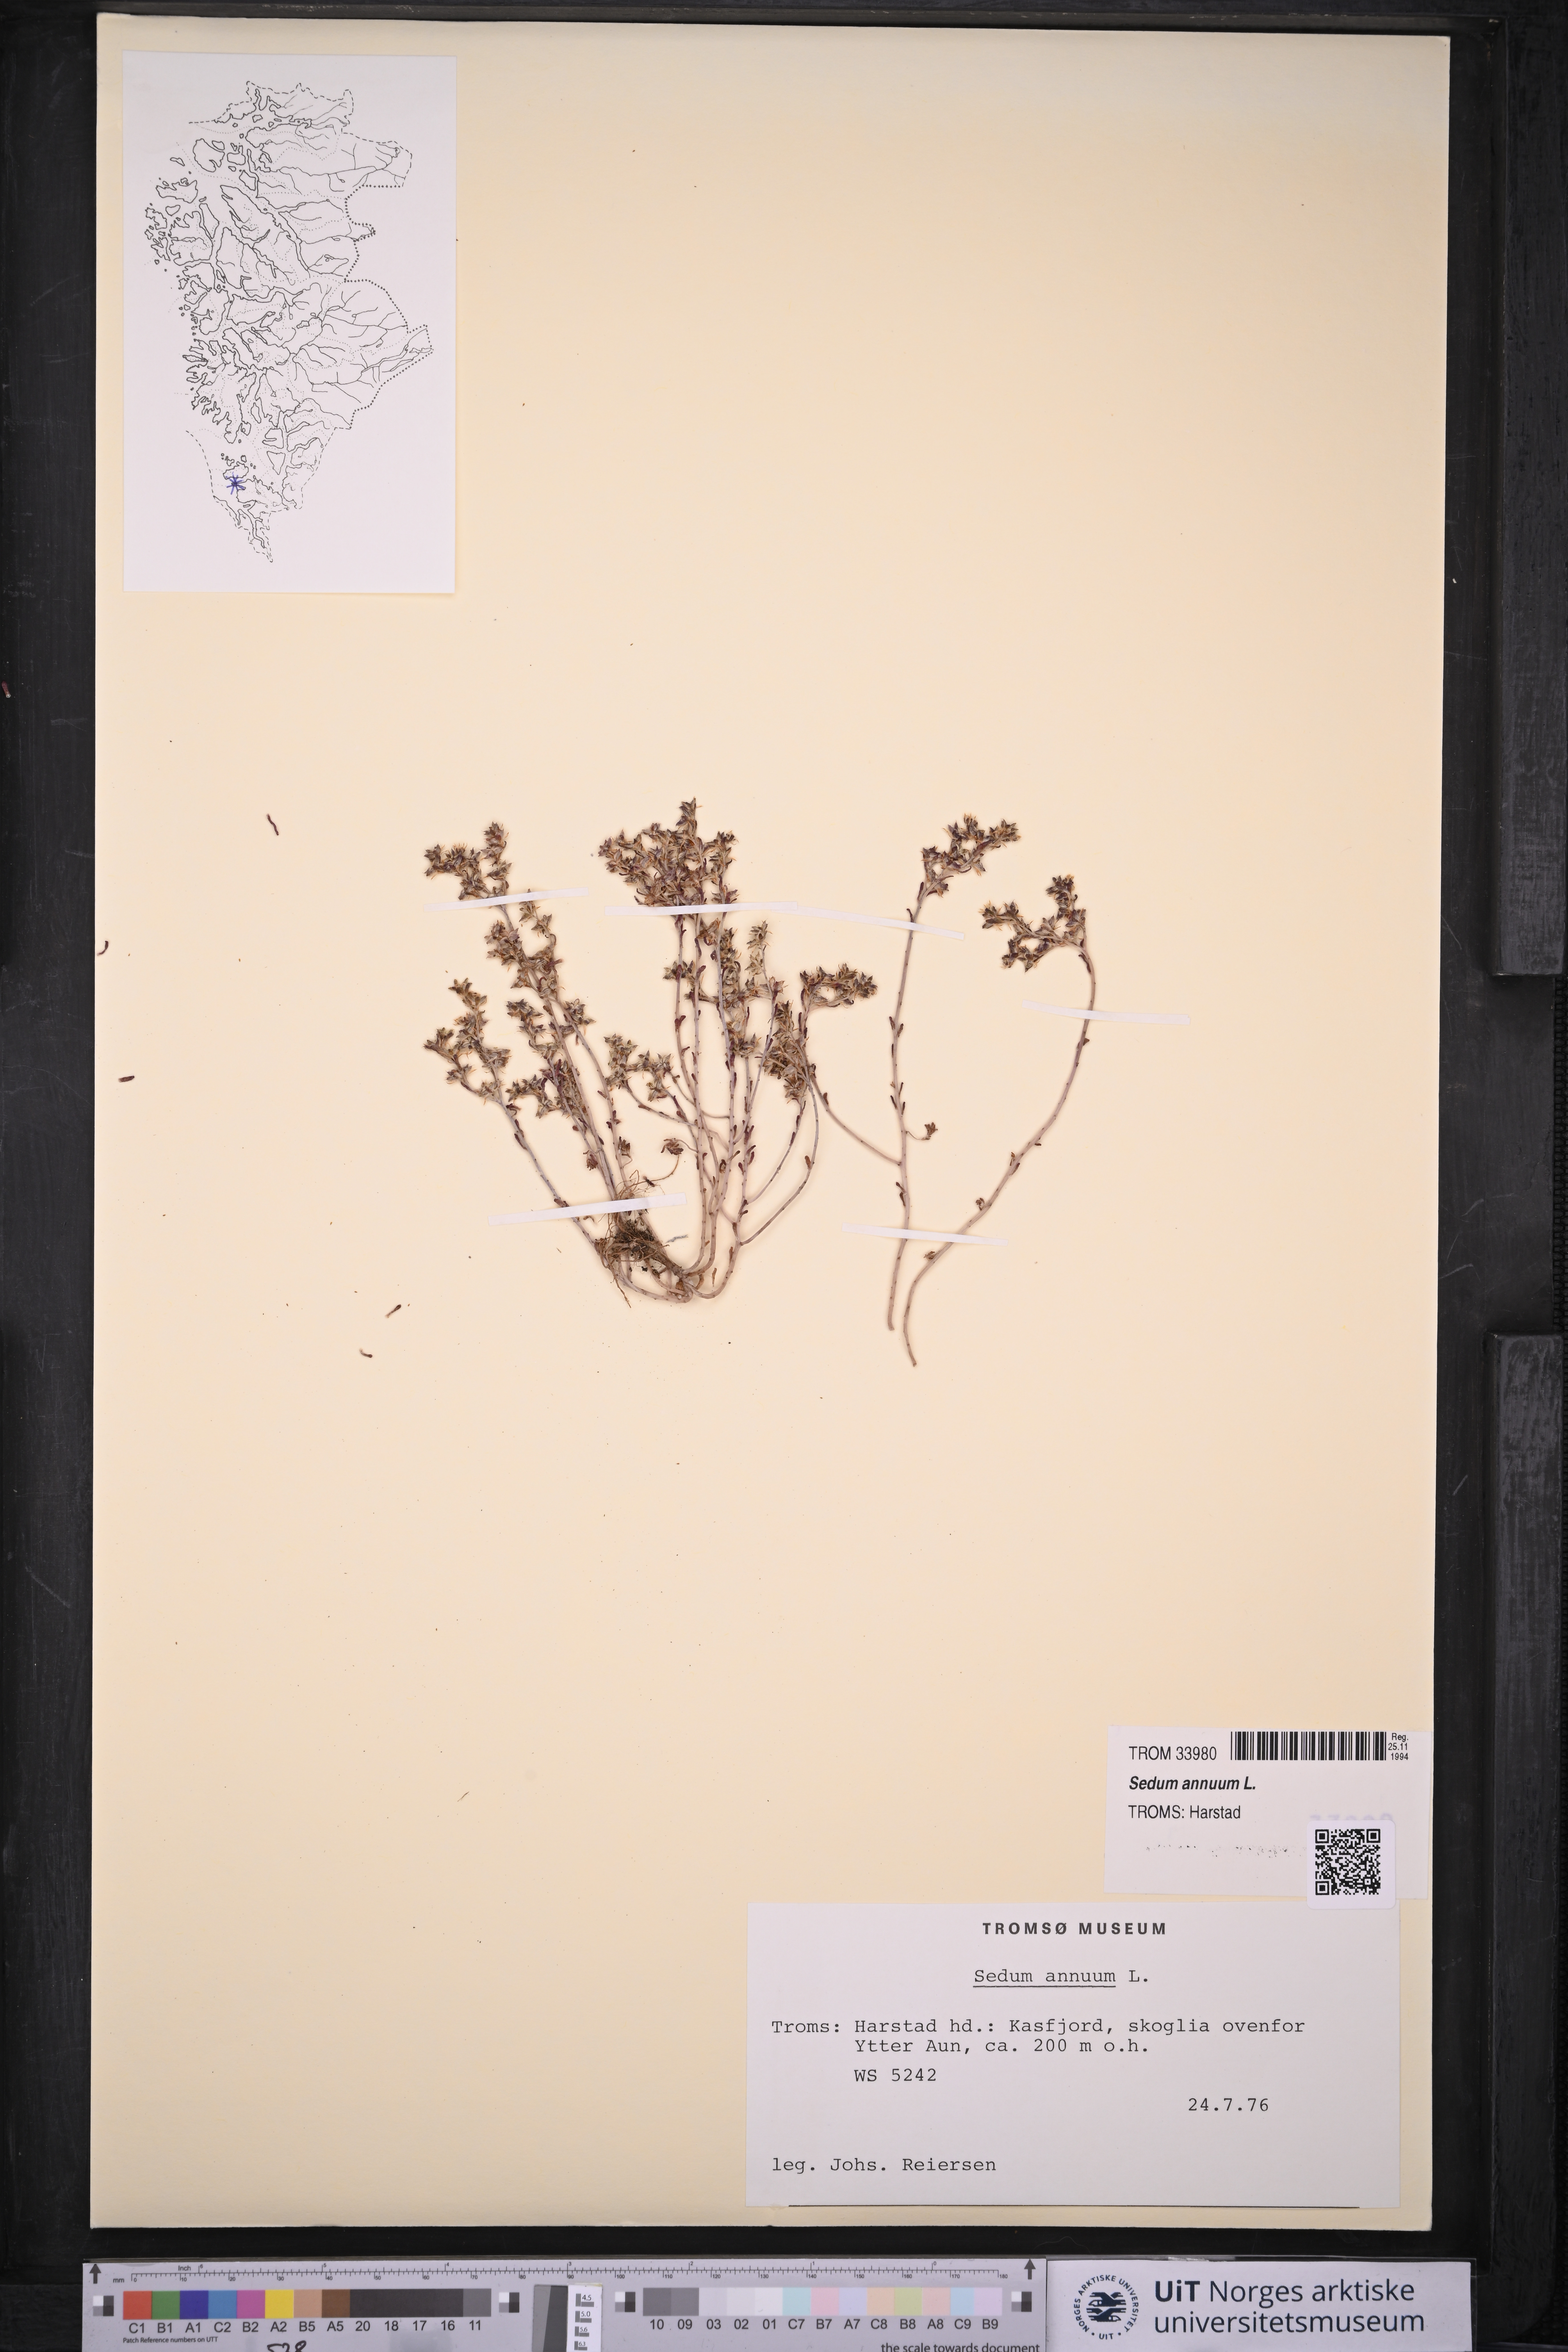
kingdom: Plantae
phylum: Tracheophyta
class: Magnoliopsida
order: Saxifragales
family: Crassulaceae
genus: Sedum
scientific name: Sedum annuum
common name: Annual stonecrop
